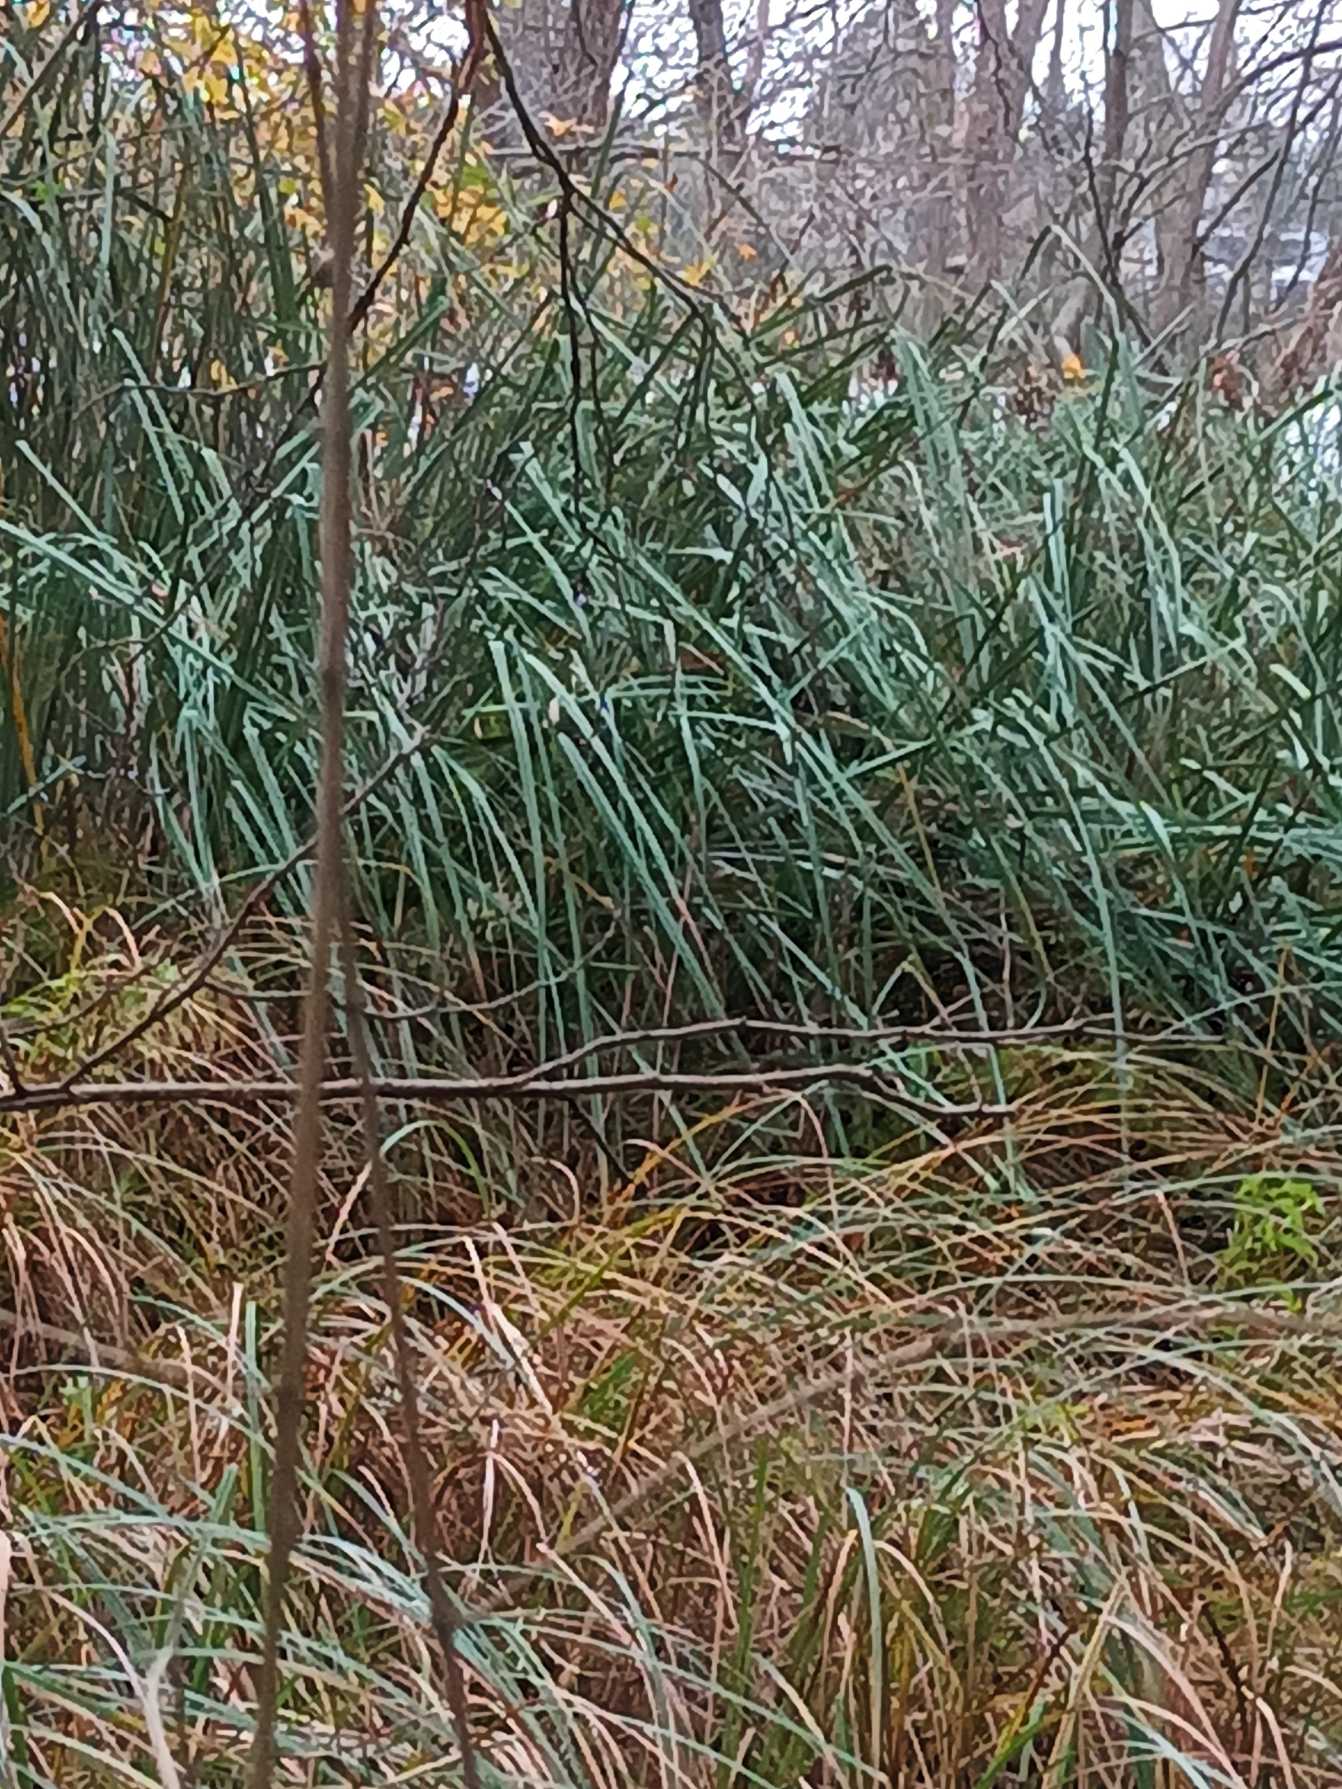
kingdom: Plantae
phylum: Tracheophyta
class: Liliopsida
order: Poales
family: Cyperaceae
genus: Cladium
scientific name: Cladium mariscus
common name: Hvas avneknippe
